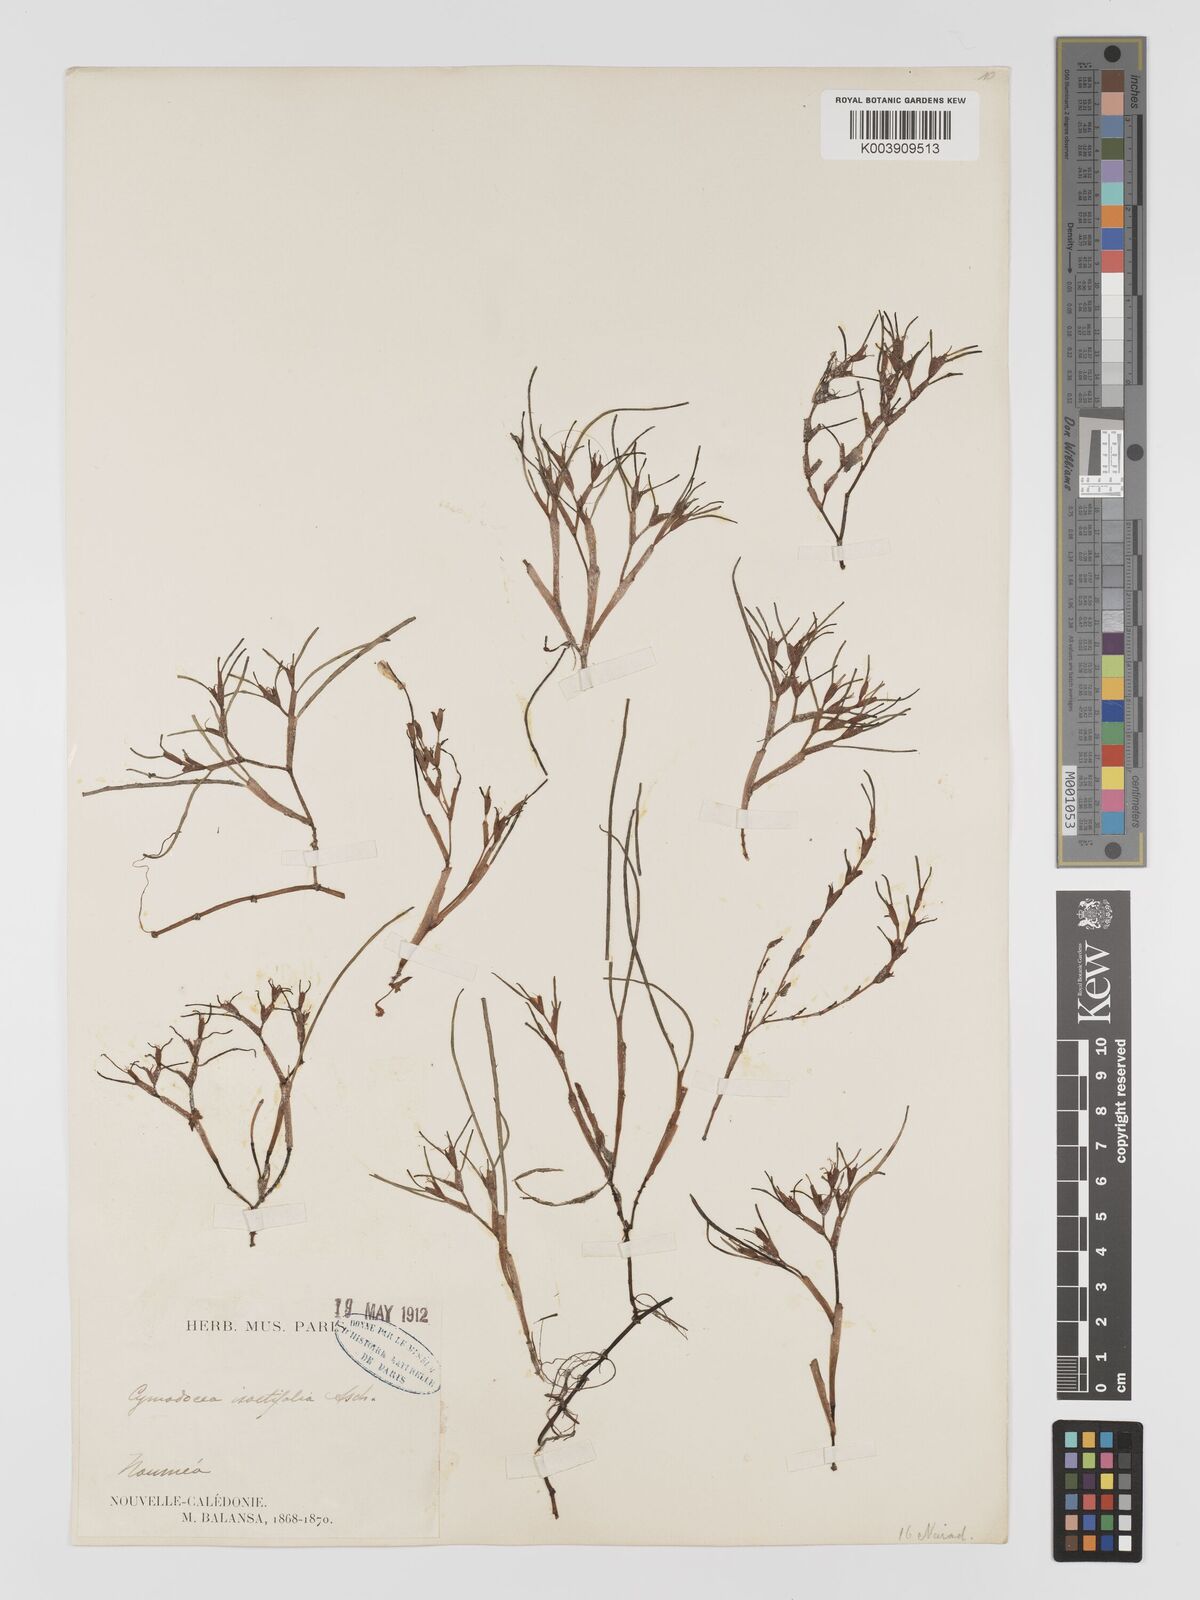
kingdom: Plantae
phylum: Tracheophyta
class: Liliopsida
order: Alismatales
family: Cymodoceaceae
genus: Syringodium
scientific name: Syringodium isoetifolium
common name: Species code: si
